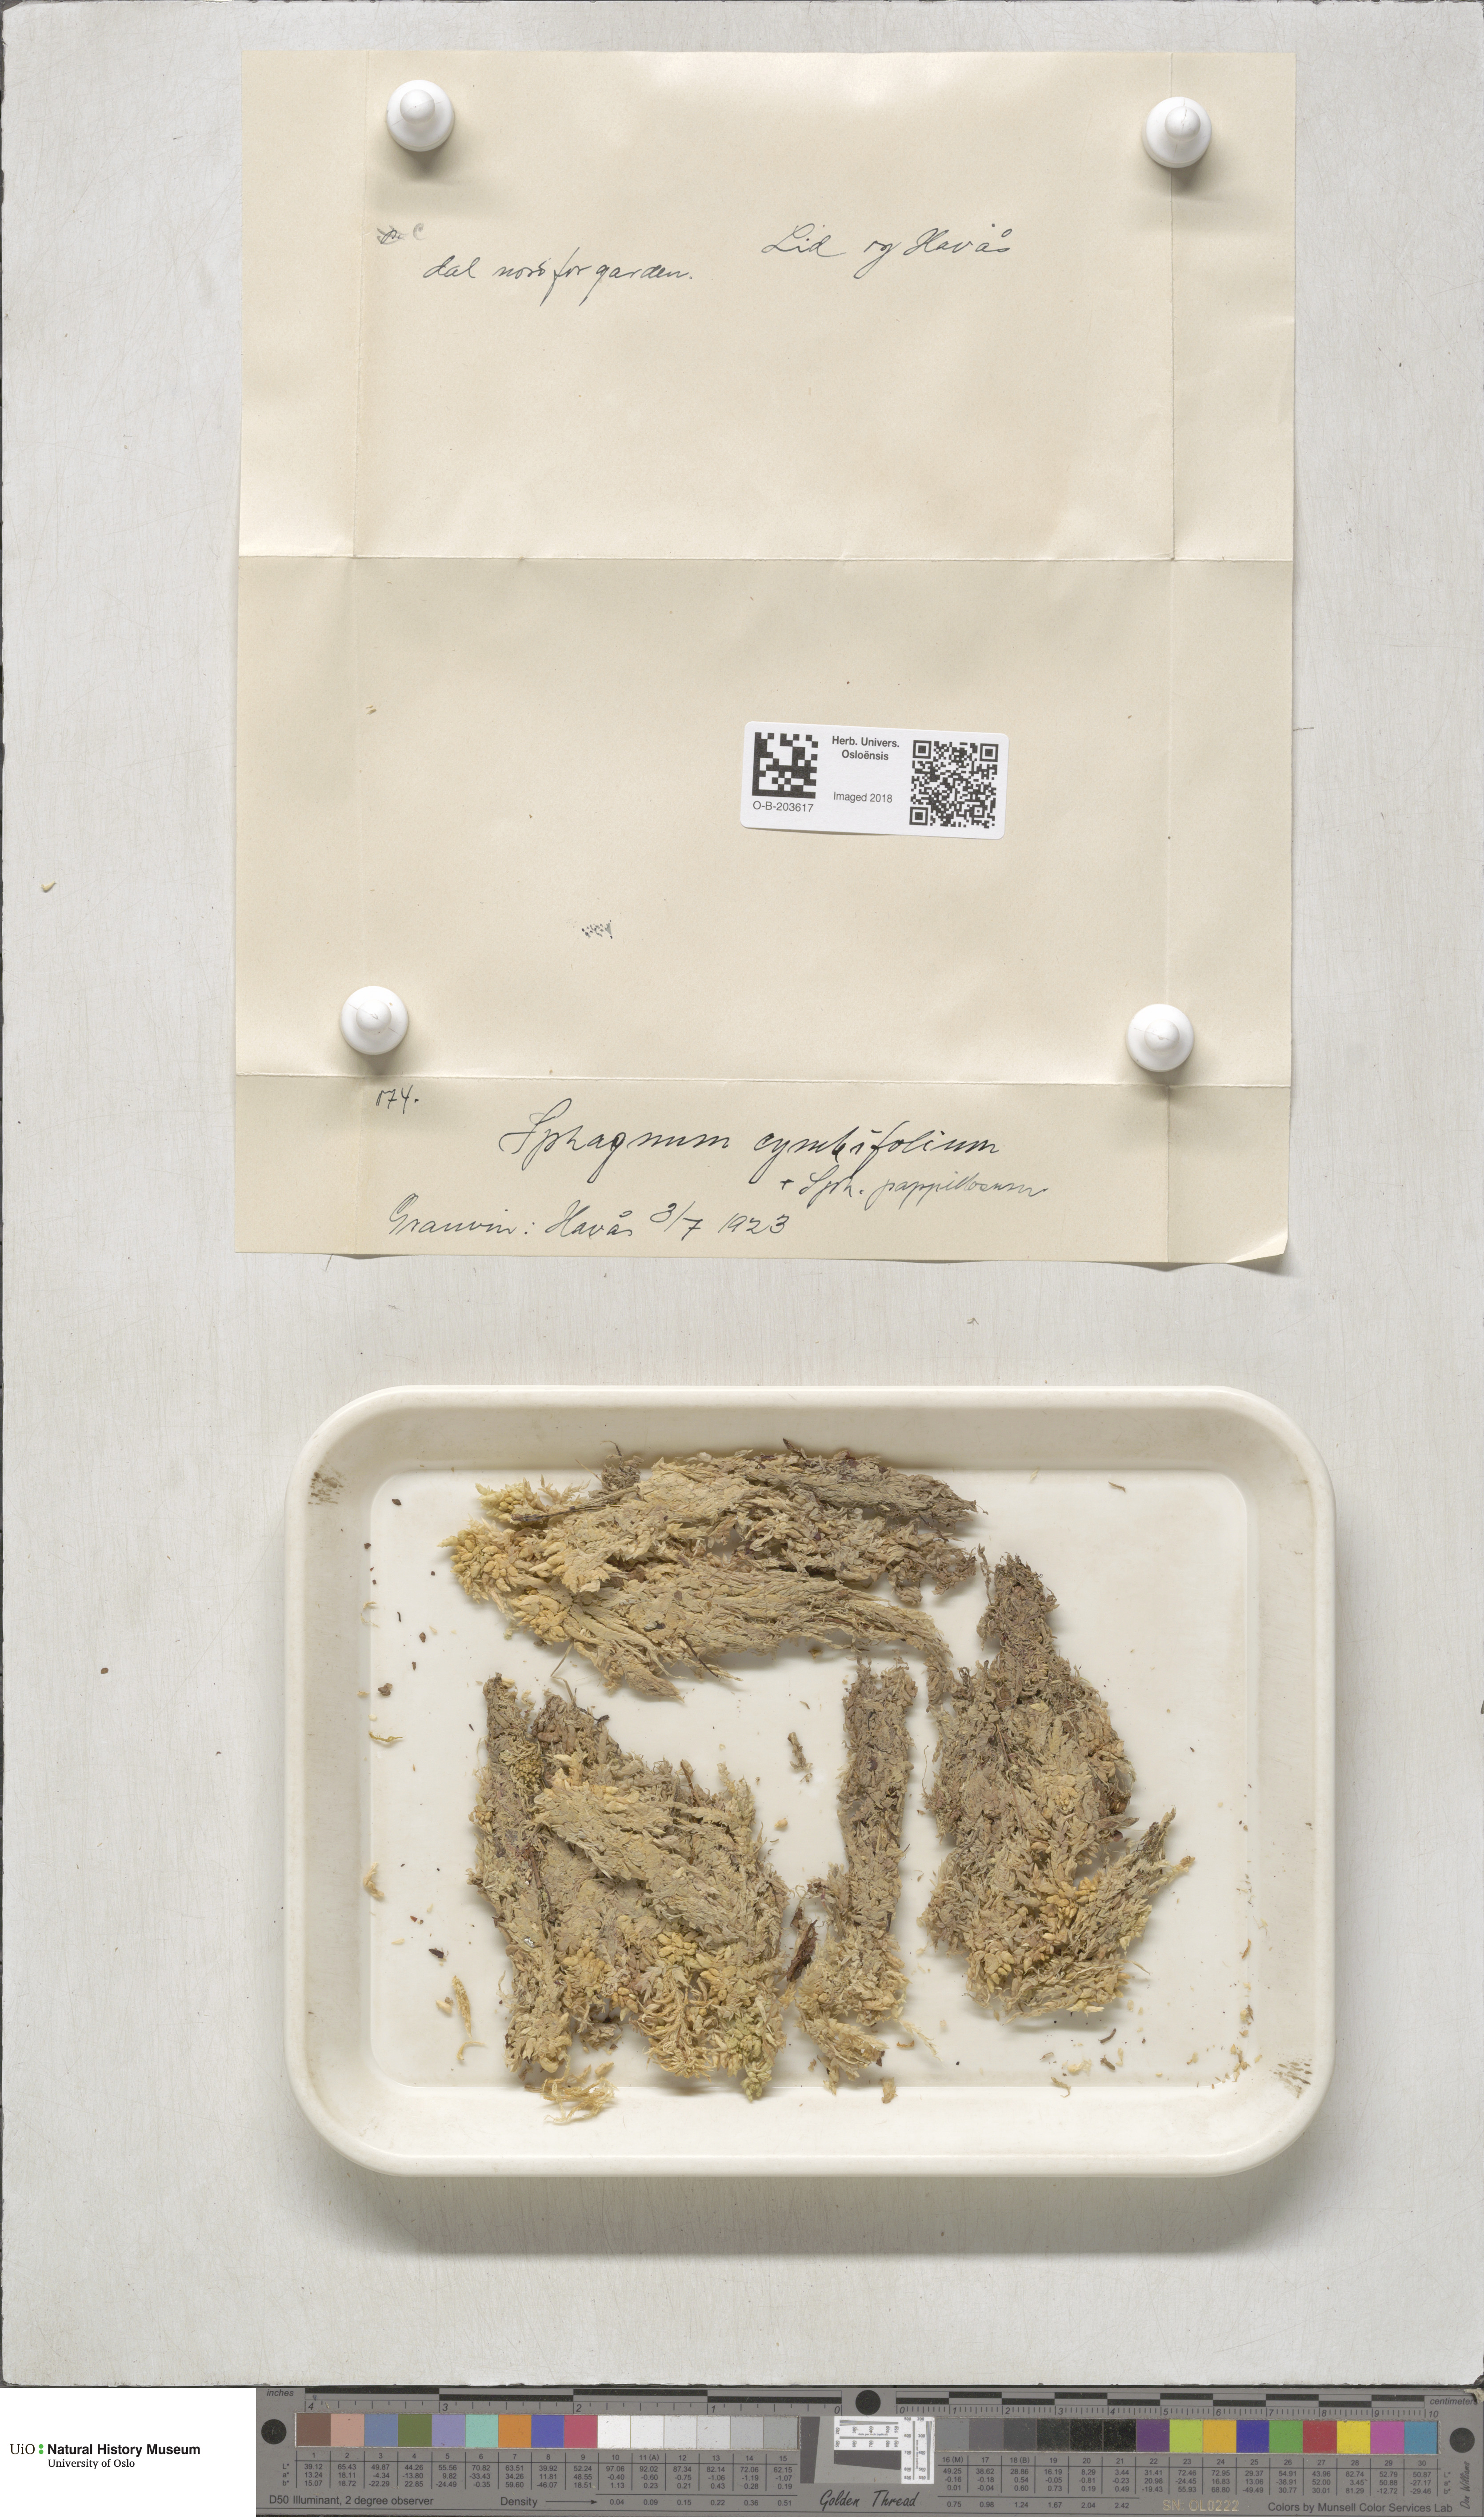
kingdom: Plantae
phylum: Bryophyta
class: Sphagnopsida
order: Sphagnales
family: Sphagnaceae
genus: Sphagnum
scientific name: Sphagnum palustre
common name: Blunt-leaved bog-moss
